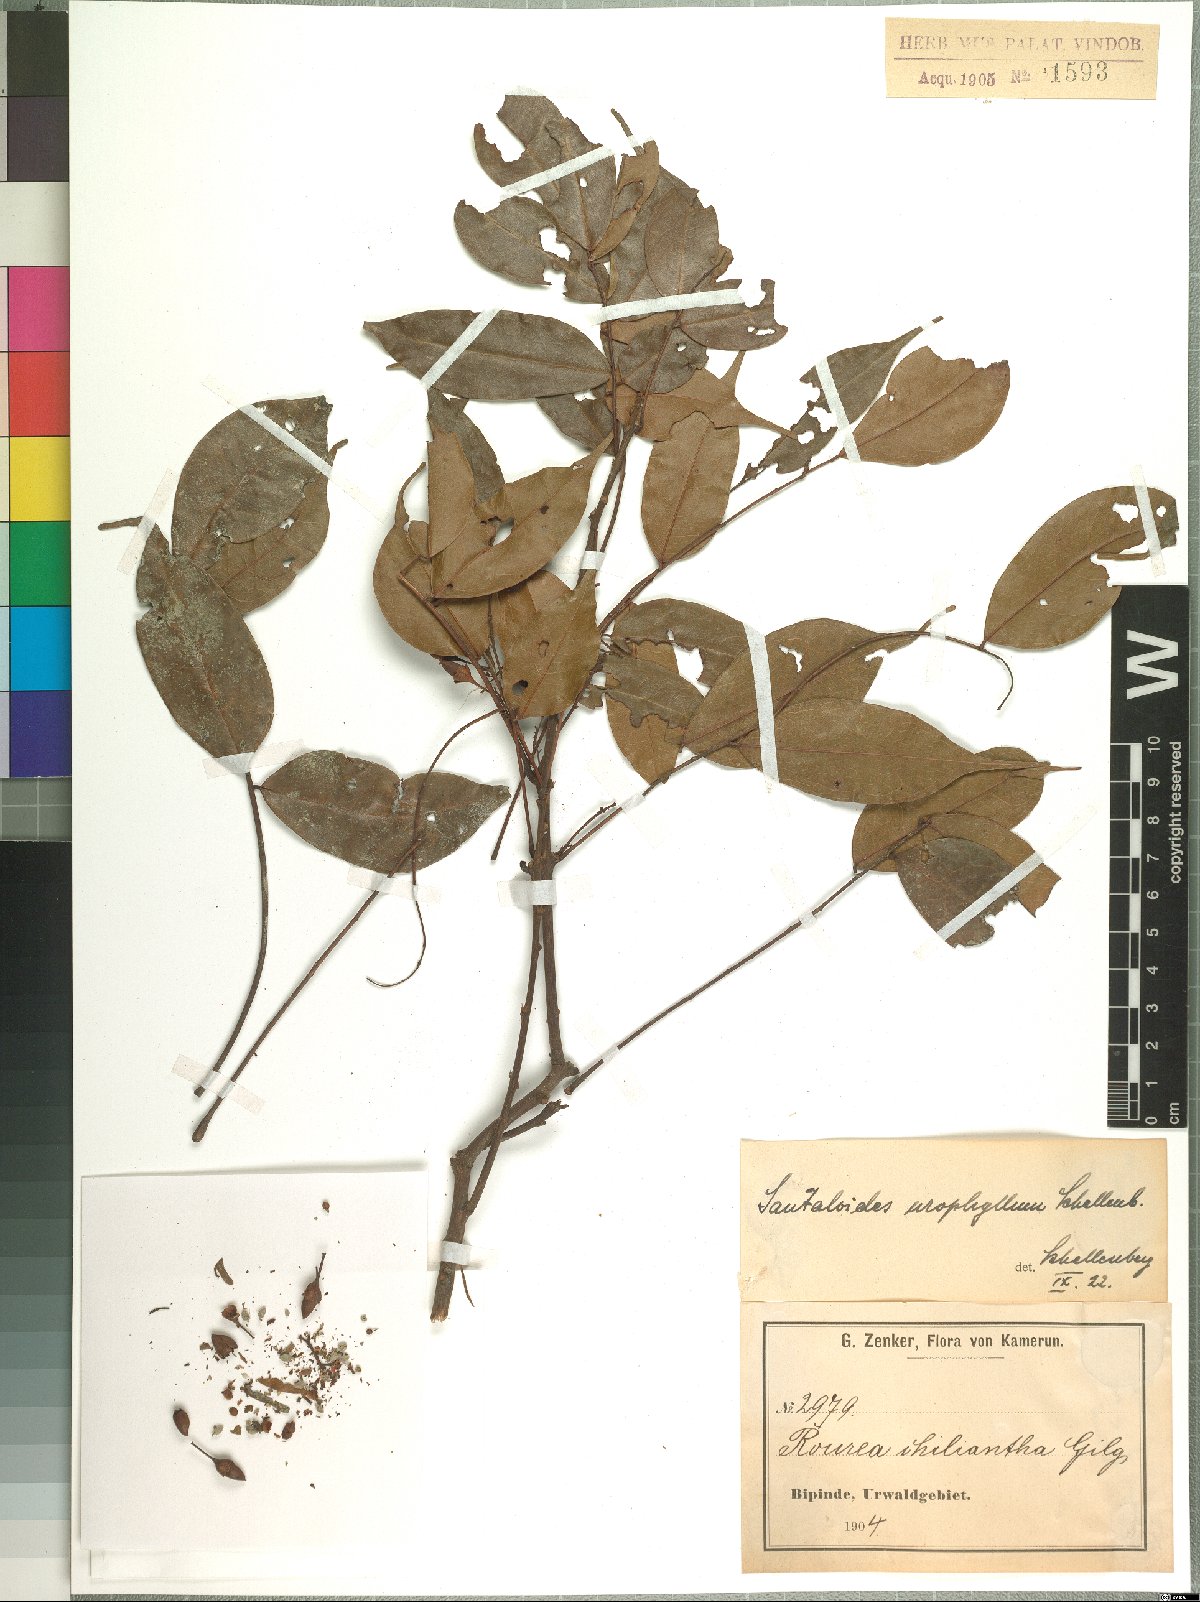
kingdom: Plantae
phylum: Tracheophyta
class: Magnoliopsida
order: Oxalidales
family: Connaraceae
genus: Rourea
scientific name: Rourea minor
